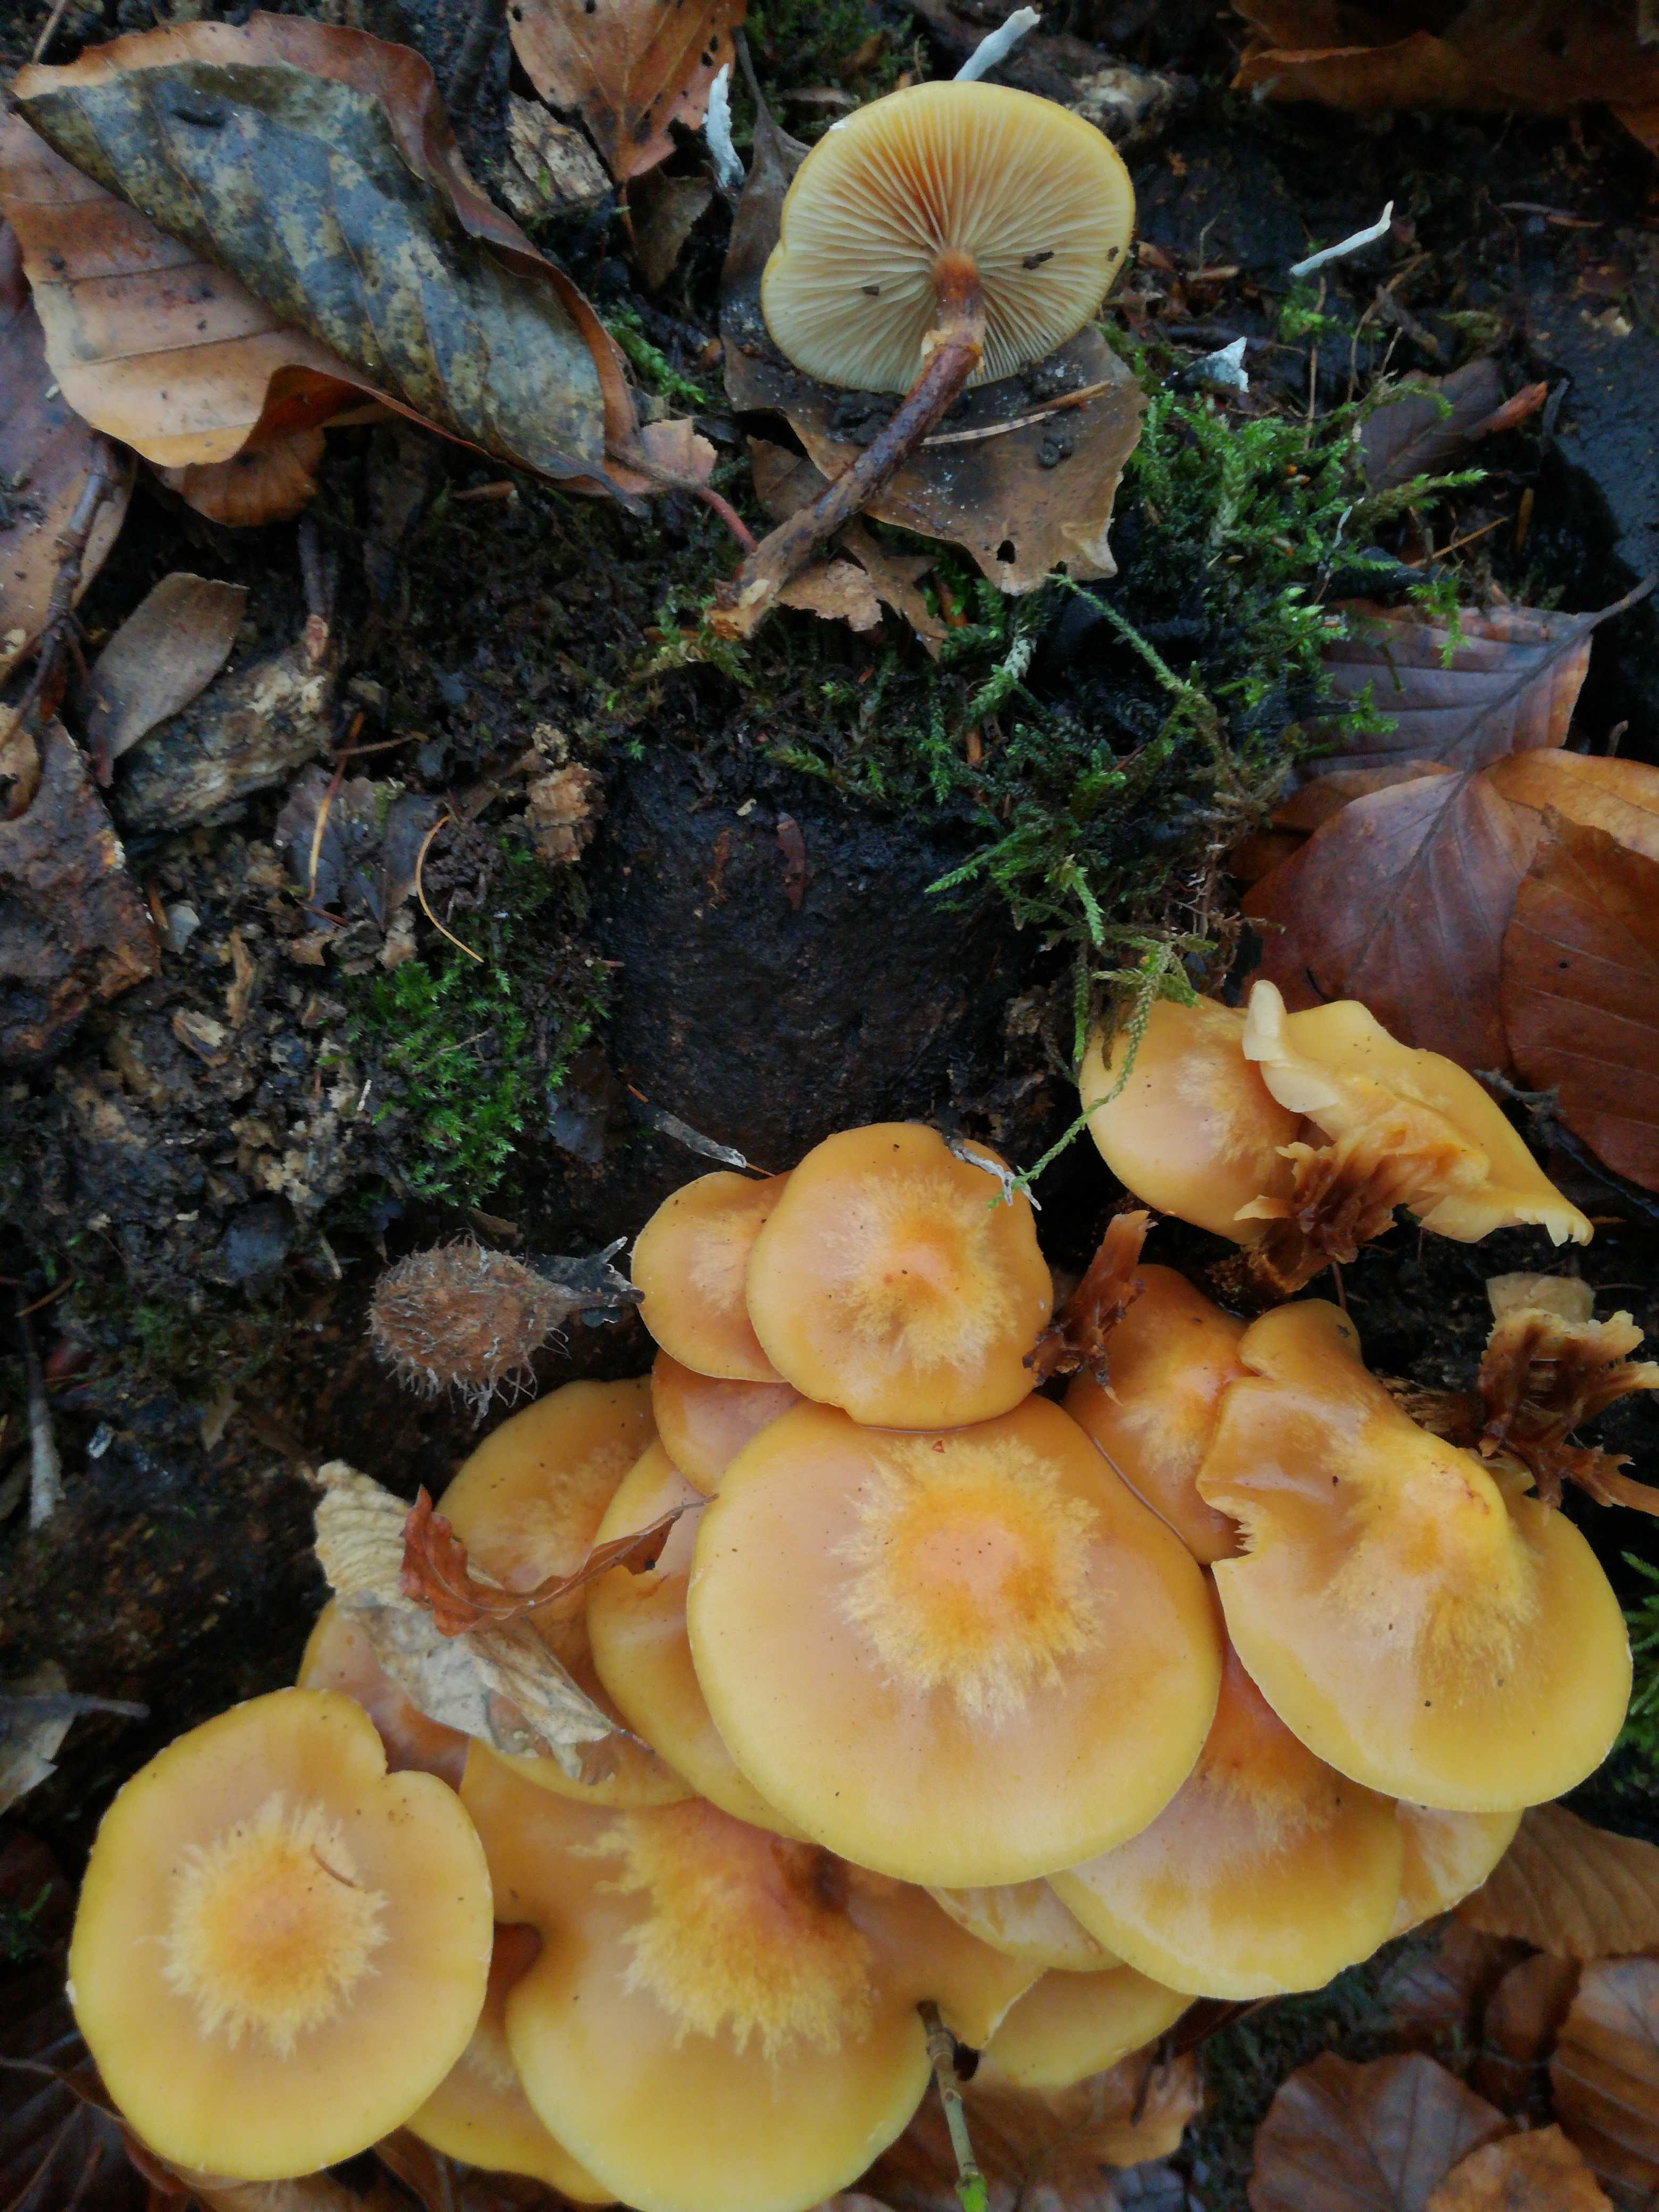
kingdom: Fungi
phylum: Basidiomycota
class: Agaricomycetes
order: Agaricales
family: Strophariaceae
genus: Kuehneromyces
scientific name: Kuehneromyces mutabilis
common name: foranderlig skælhat
